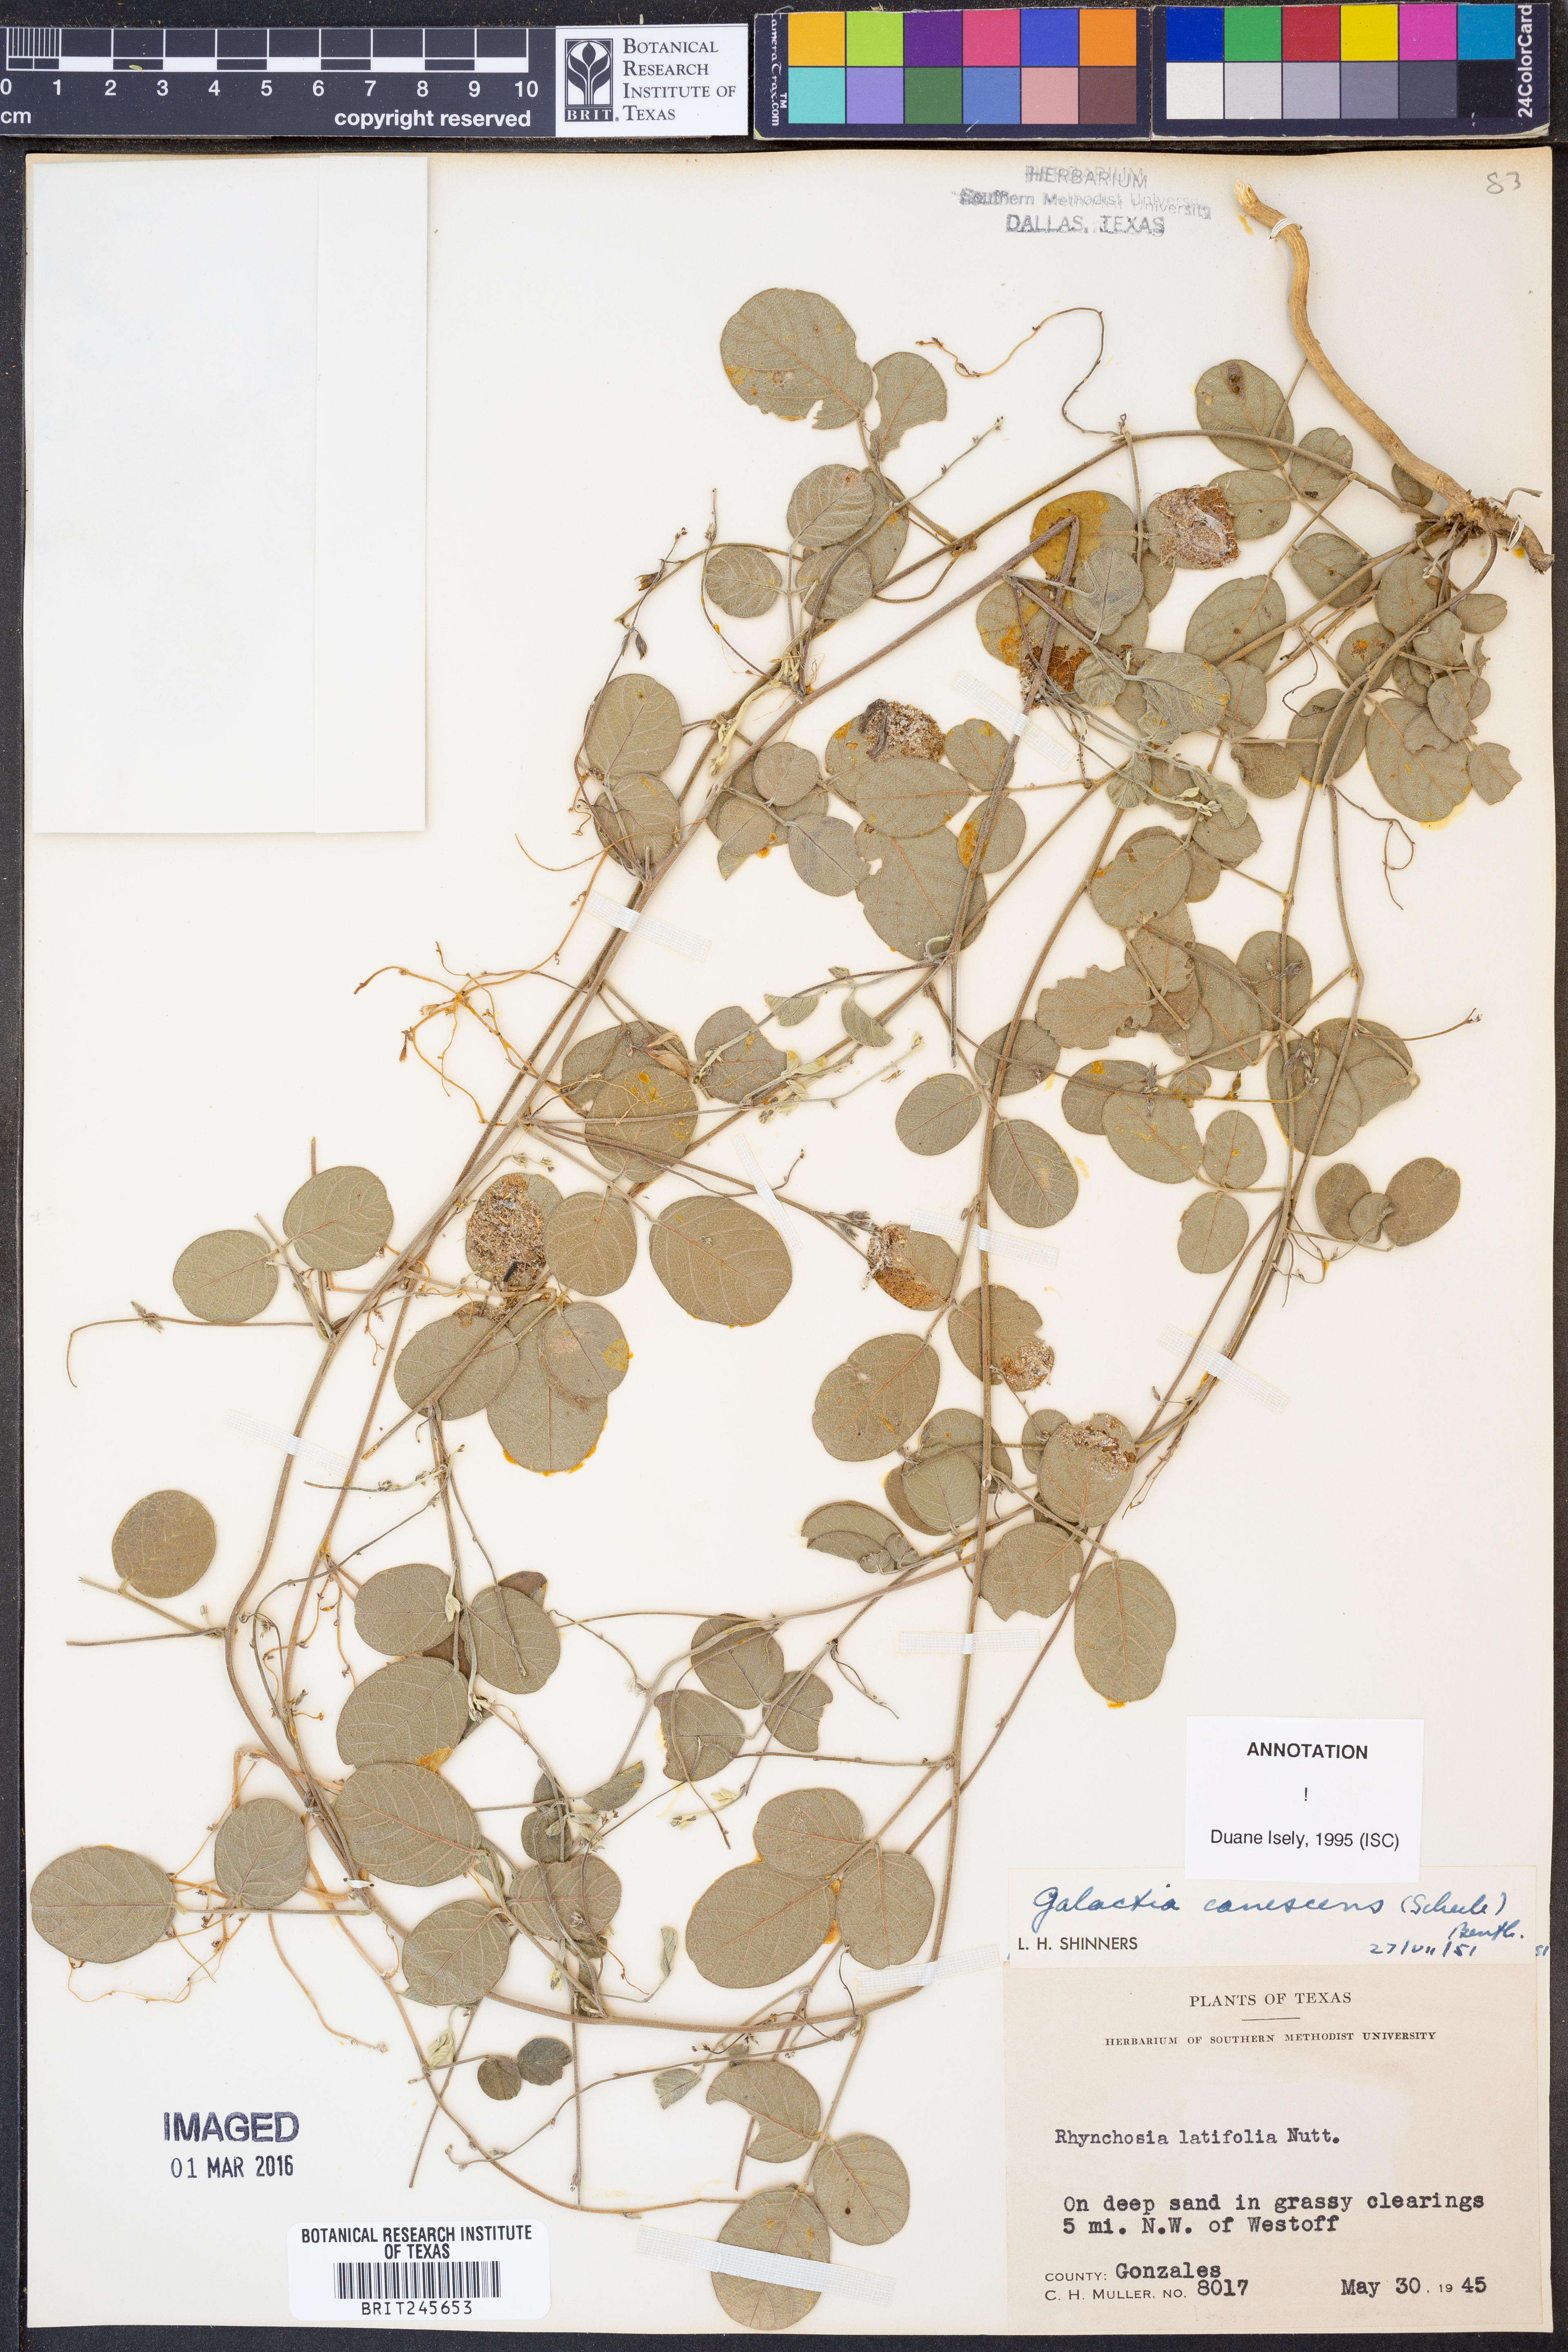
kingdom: Plantae
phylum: Tracheophyta
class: Magnoliopsida
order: Fabales
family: Fabaceae
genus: Galactia
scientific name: Galactia canescens
